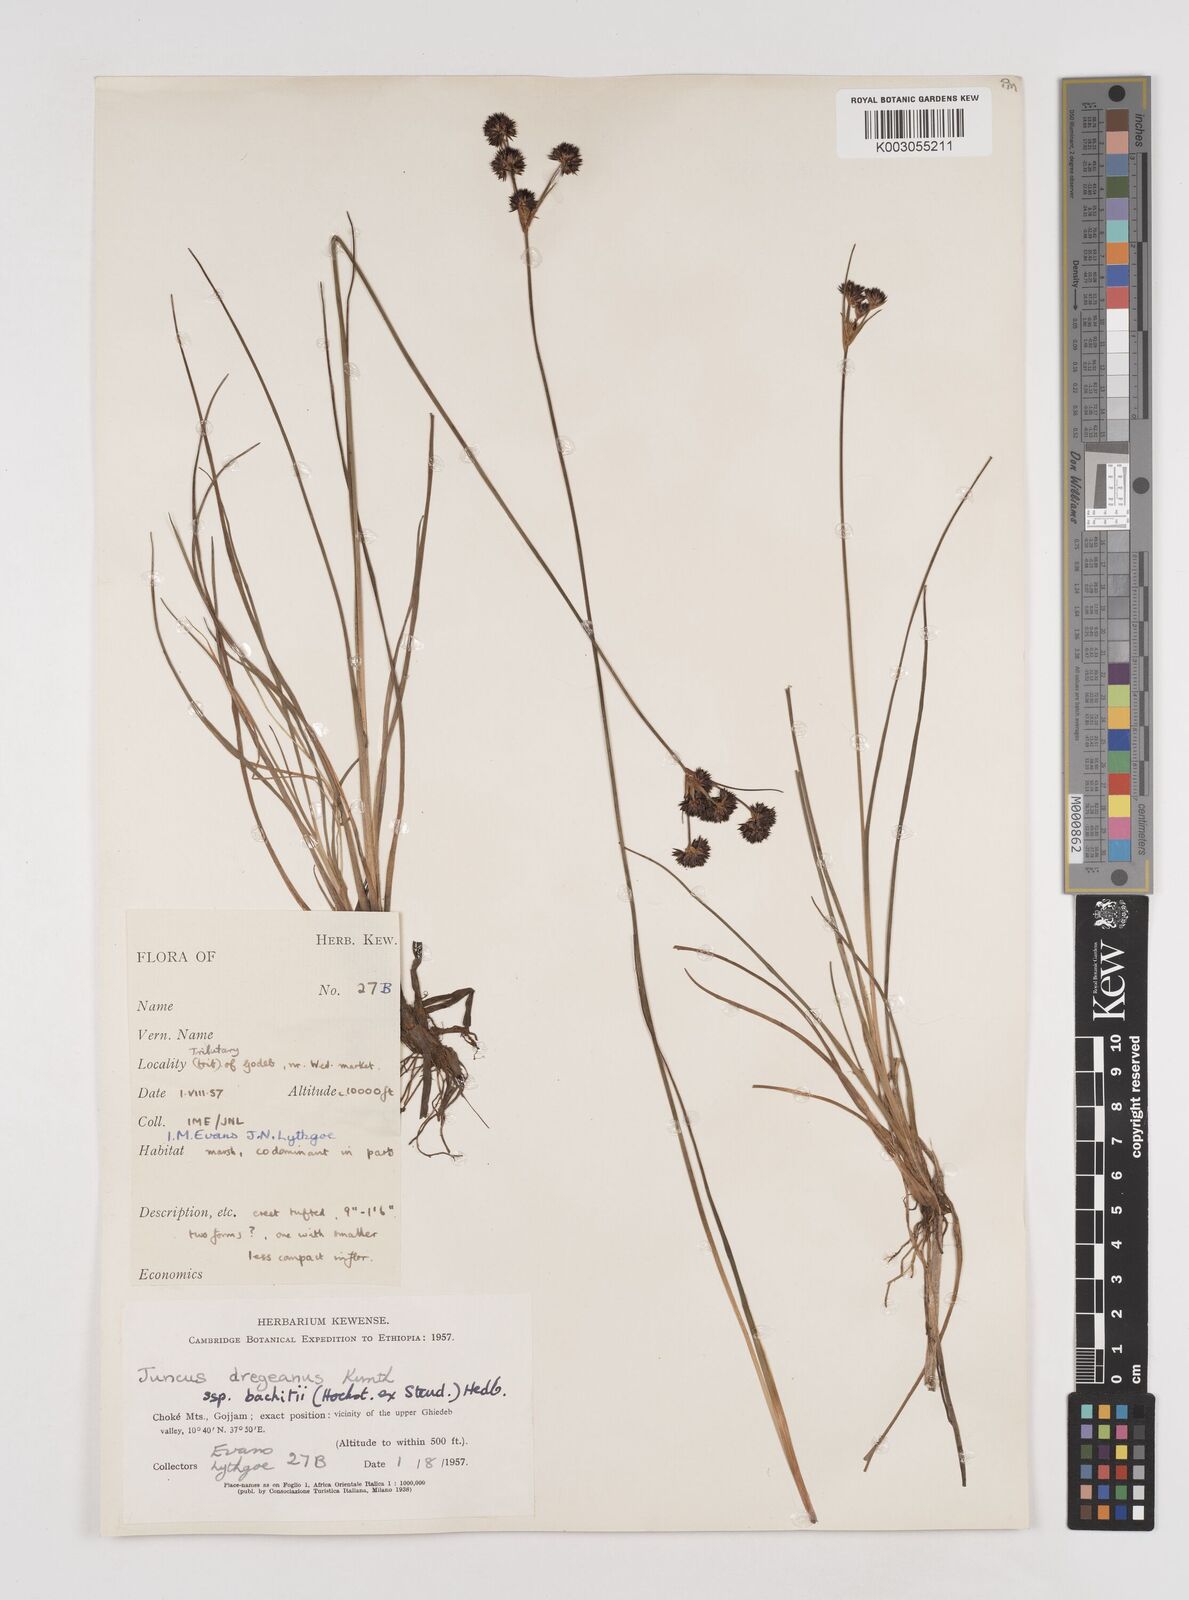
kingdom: Plantae
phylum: Tracheophyta
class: Liliopsida
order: Poales
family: Juncaceae
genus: Juncus
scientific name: Juncus dregeanus
